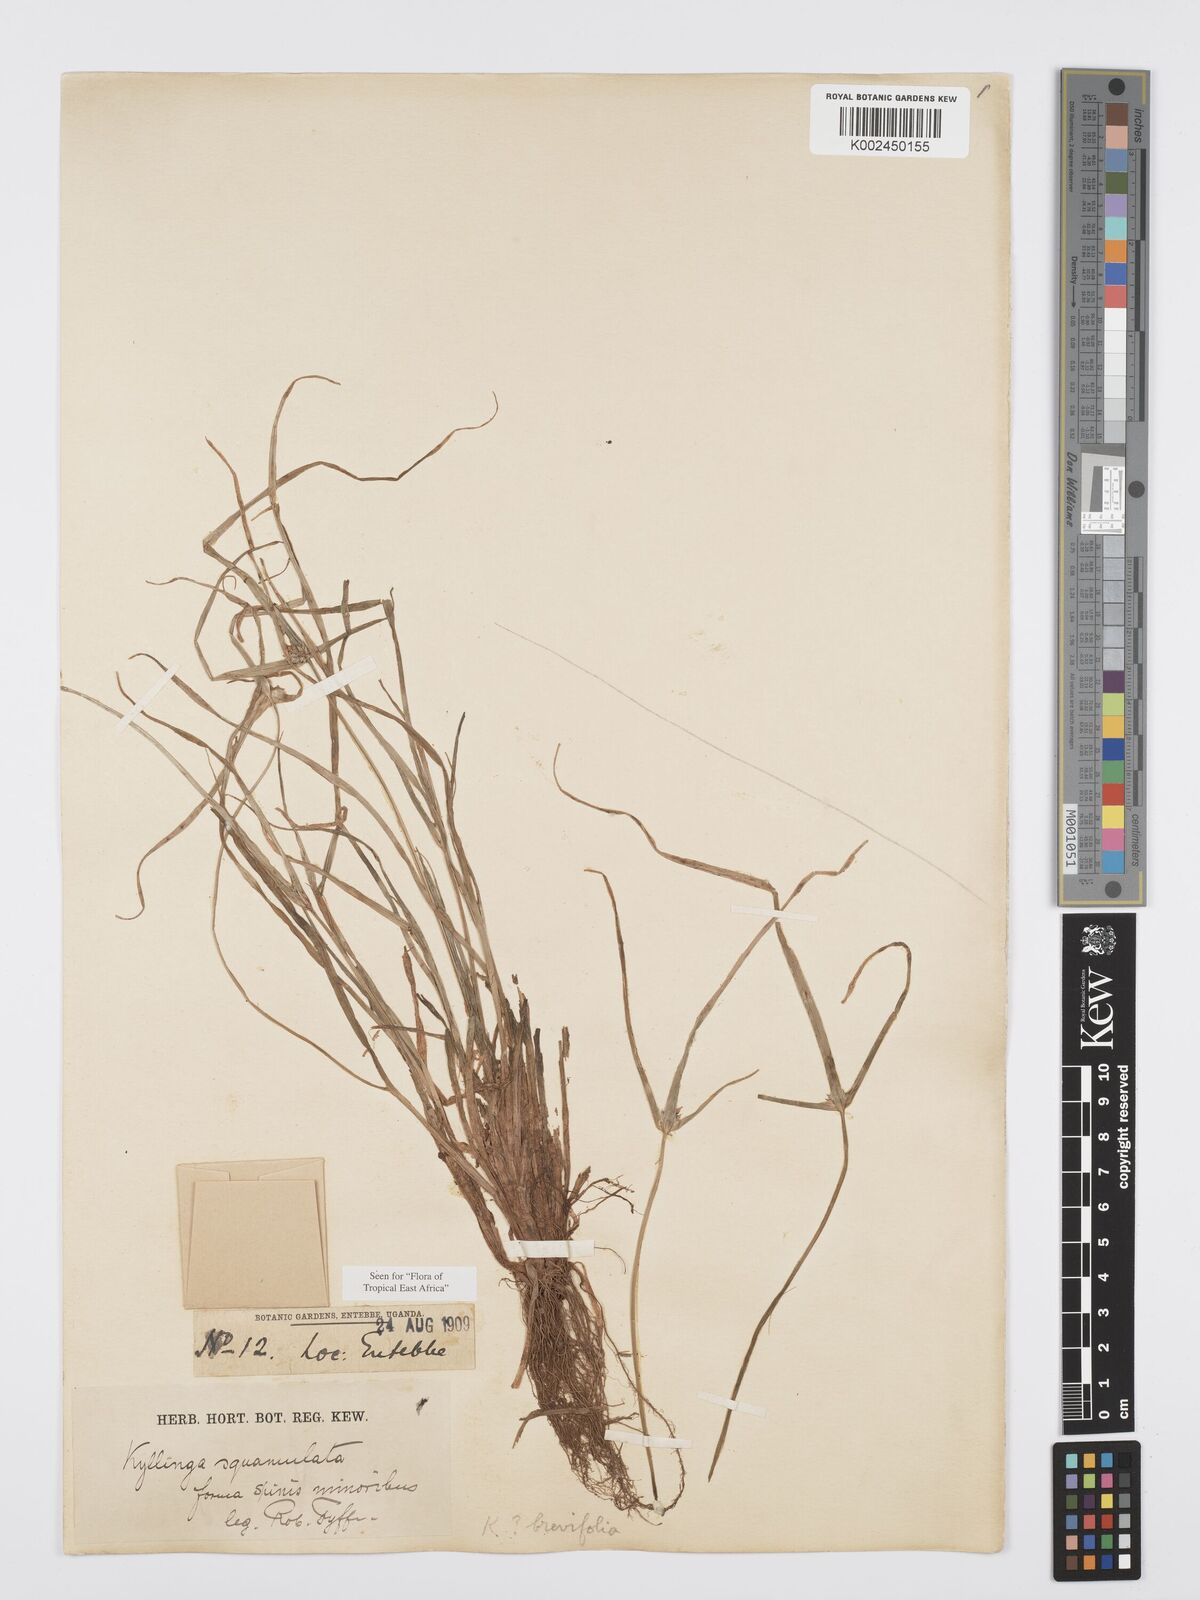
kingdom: Plantae
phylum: Tracheophyta
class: Liliopsida
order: Poales
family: Cyperaceae
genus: Cyperus
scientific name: Cyperus distans
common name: Slender cyperus
